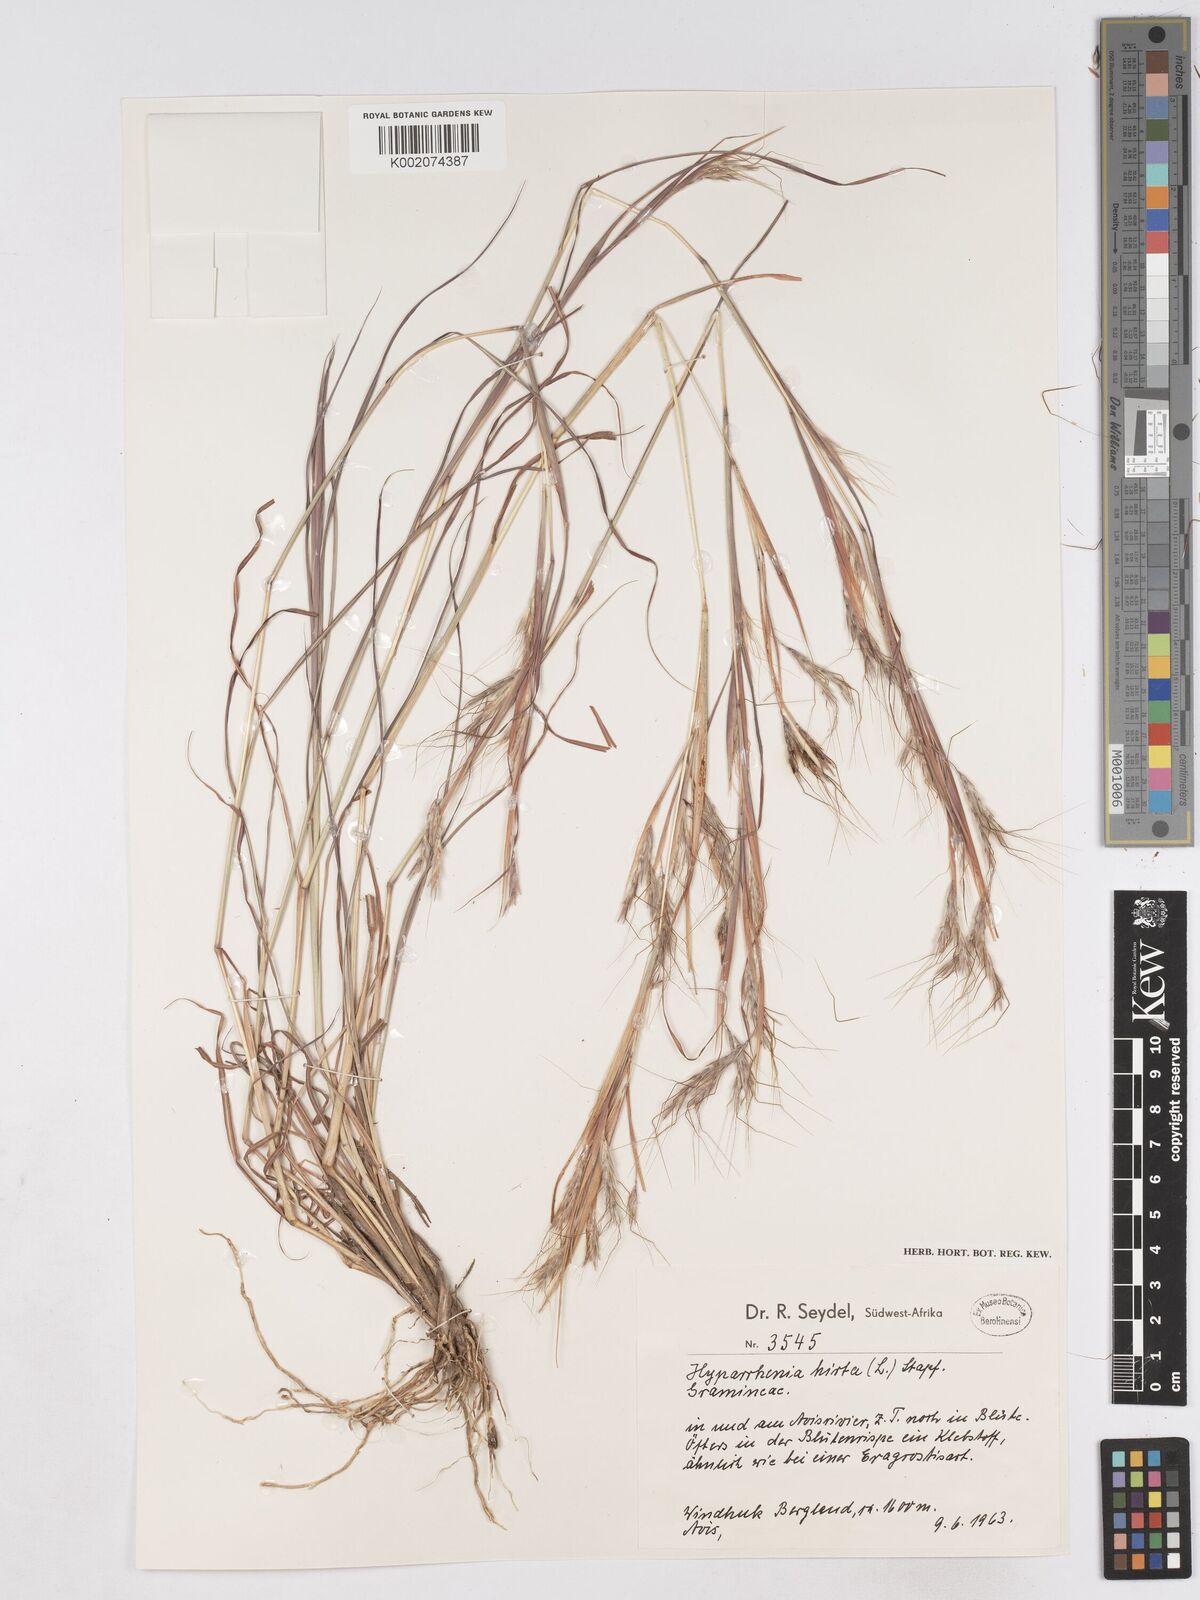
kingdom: Plantae
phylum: Tracheophyta
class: Liliopsida
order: Poales
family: Poaceae
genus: Hyparrhenia
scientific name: Hyparrhenia hirta
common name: Thatching grass
